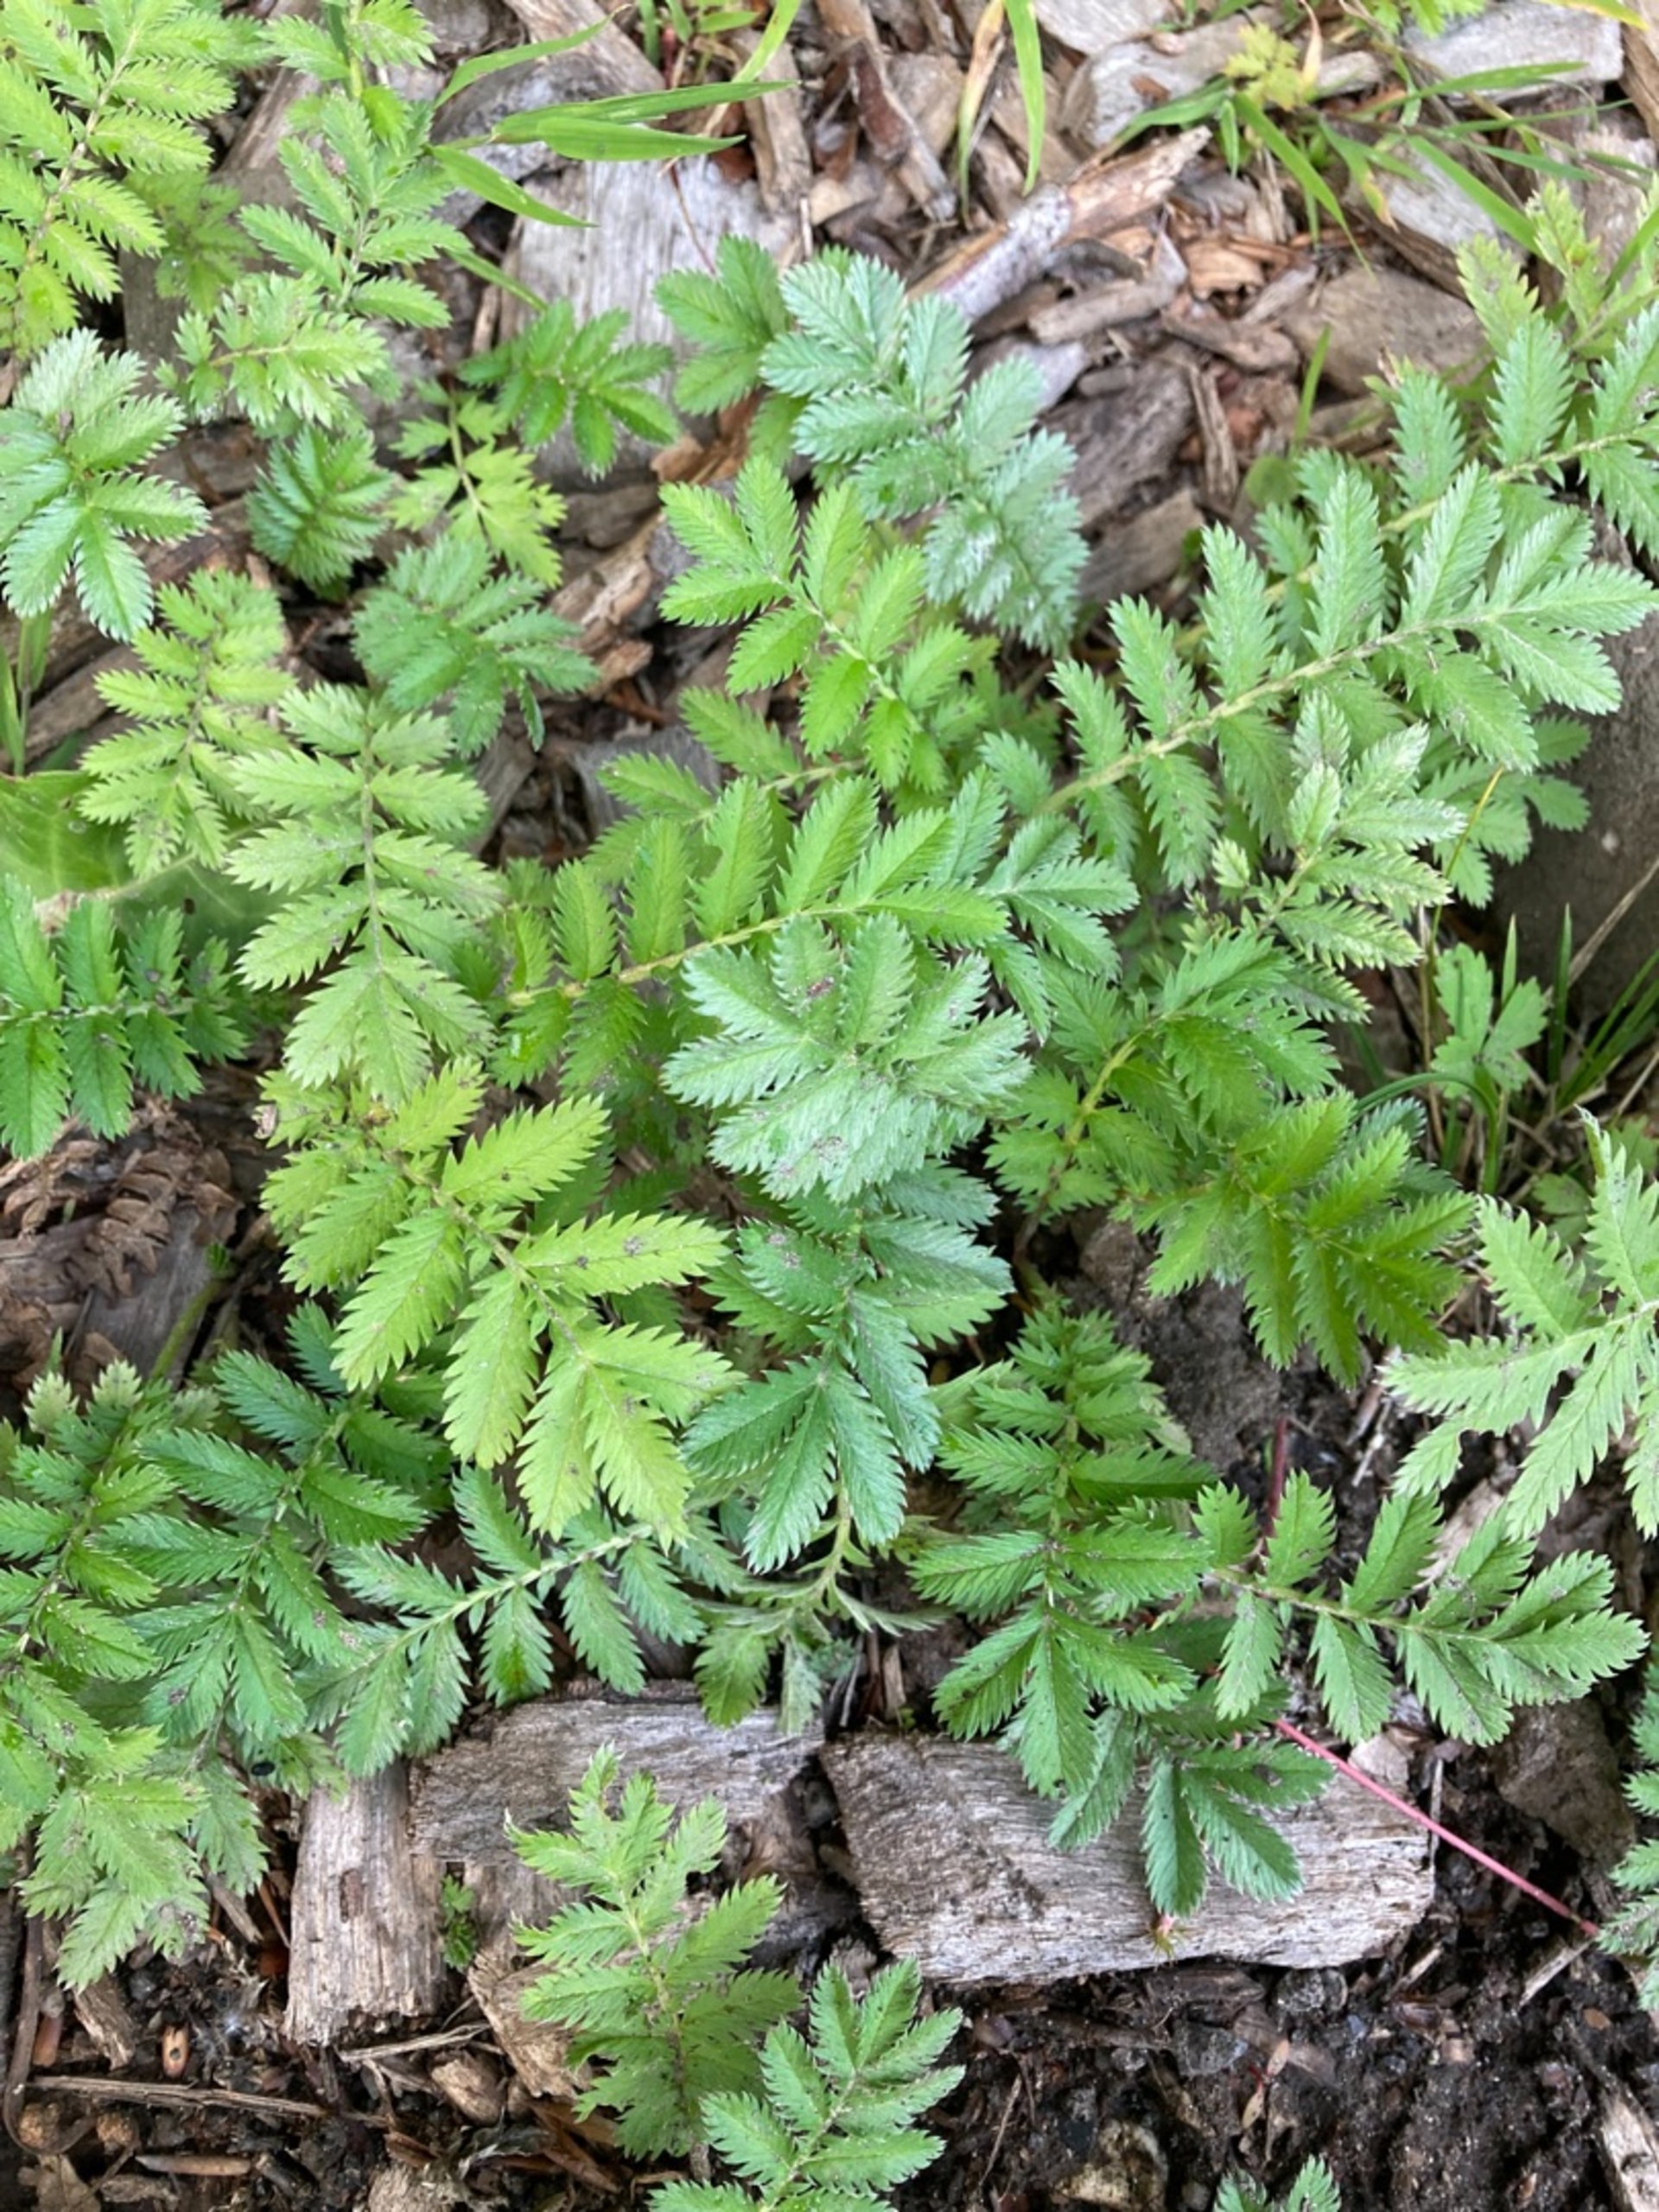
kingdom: Plantae
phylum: Tracheophyta
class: Magnoliopsida
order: Rosales
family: Rosaceae
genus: Argentina
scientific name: Argentina anserina
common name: Gåsepotentil
